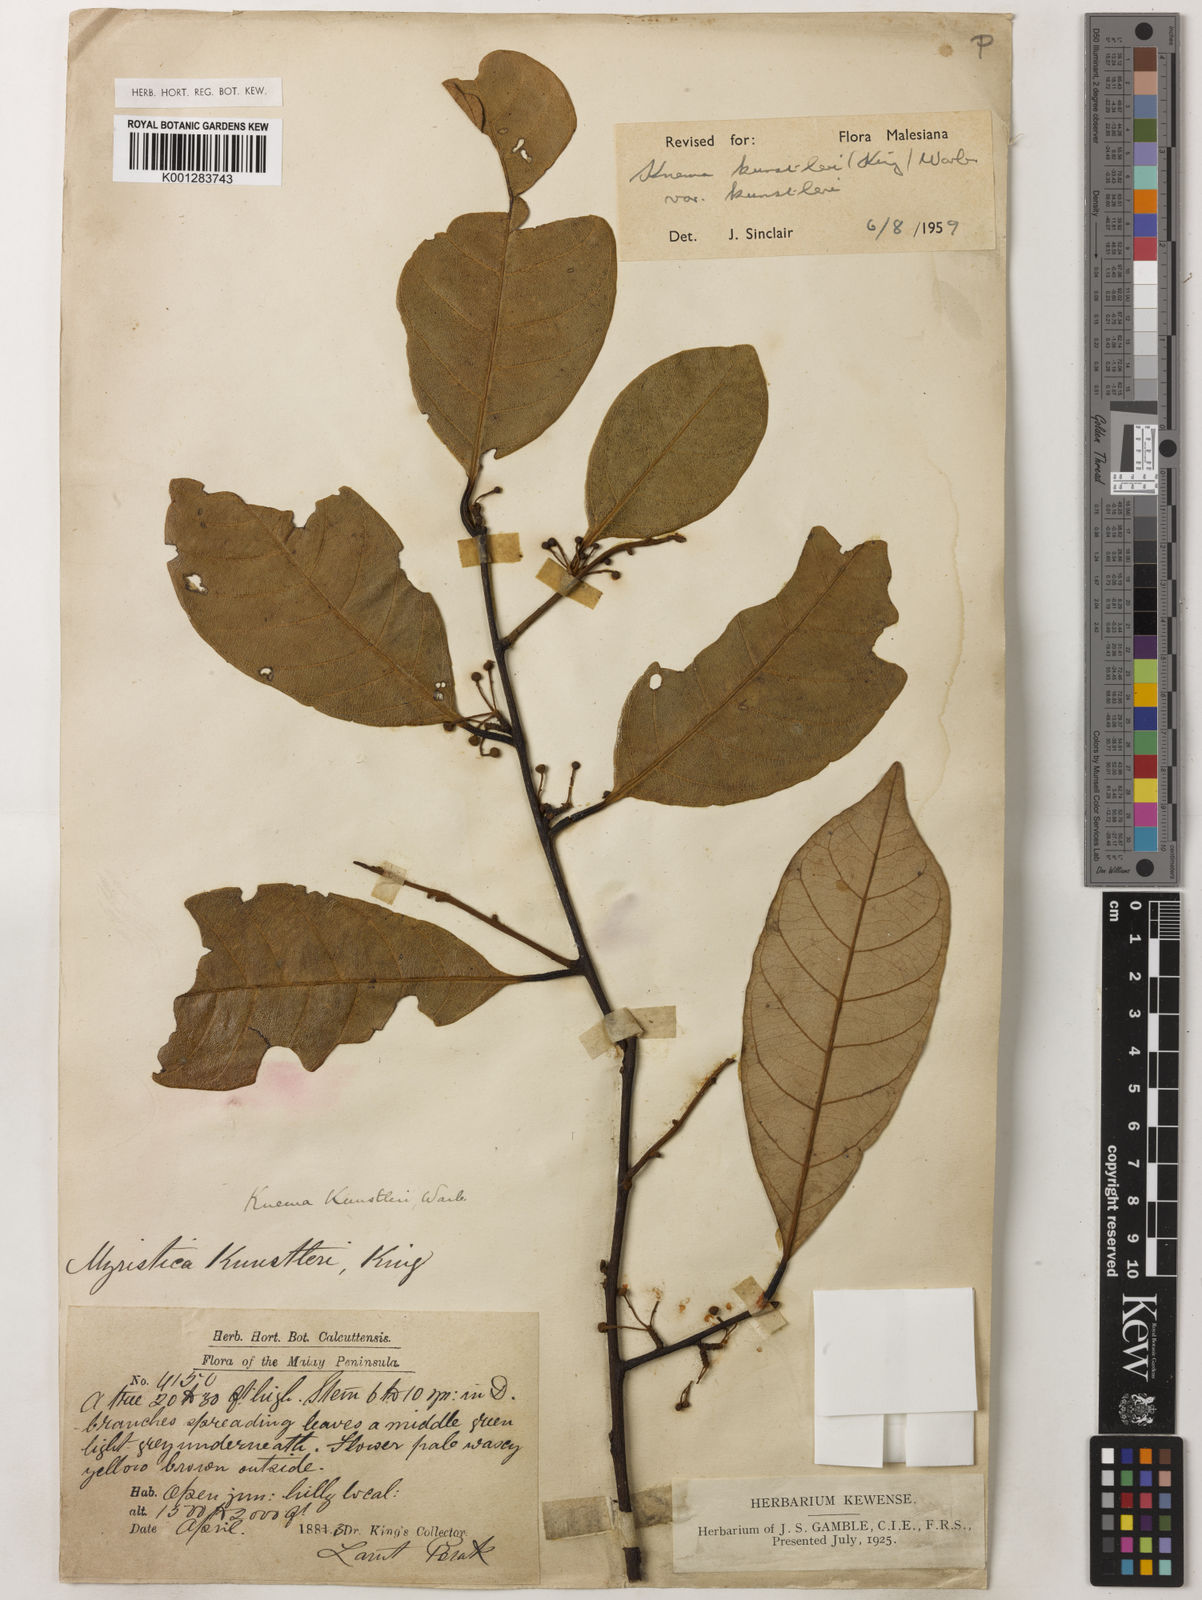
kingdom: Plantae
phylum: Tracheophyta
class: Magnoliopsida
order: Magnoliales
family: Myristicaceae
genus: Knema
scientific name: Knema kunstleri
